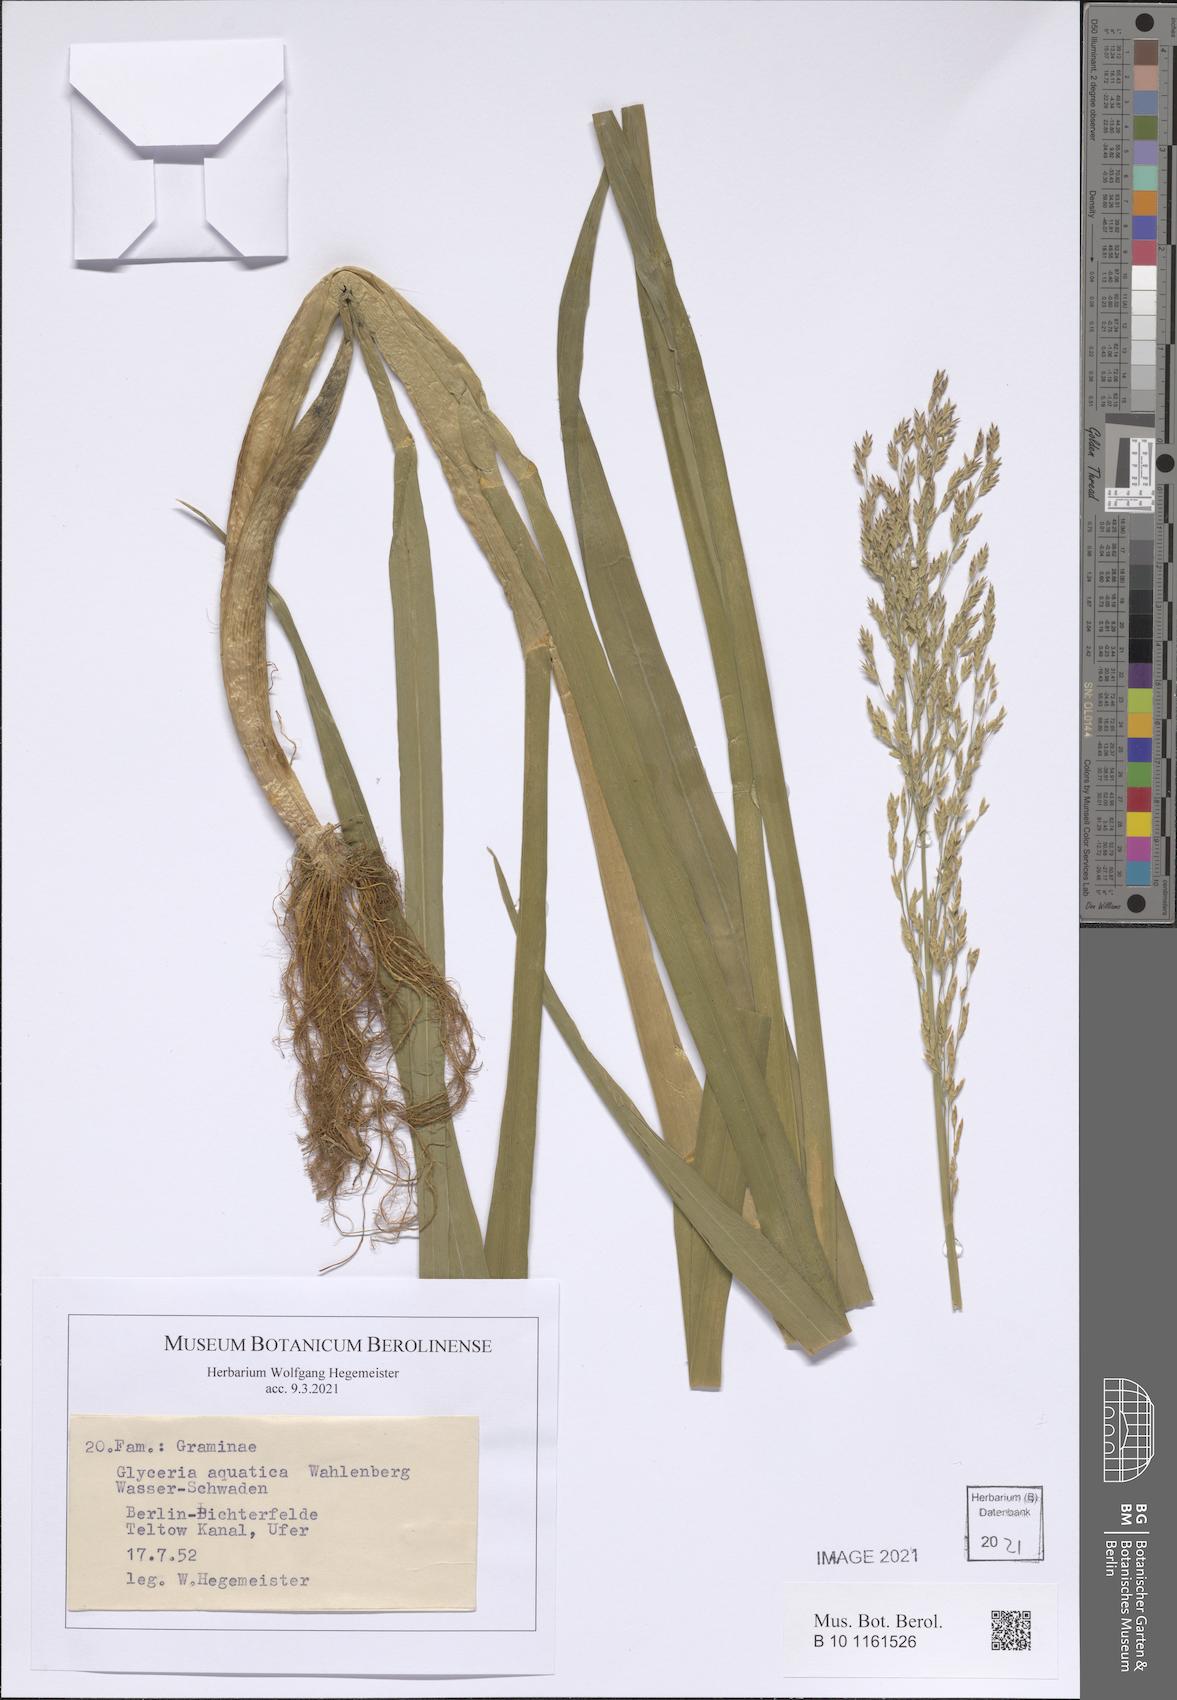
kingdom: Plantae
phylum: Tracheophyta
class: Liliopsida
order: Poales
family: Poaceae
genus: Catabrosa
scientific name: Catabrosa aquatica
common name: Whorl-grass
